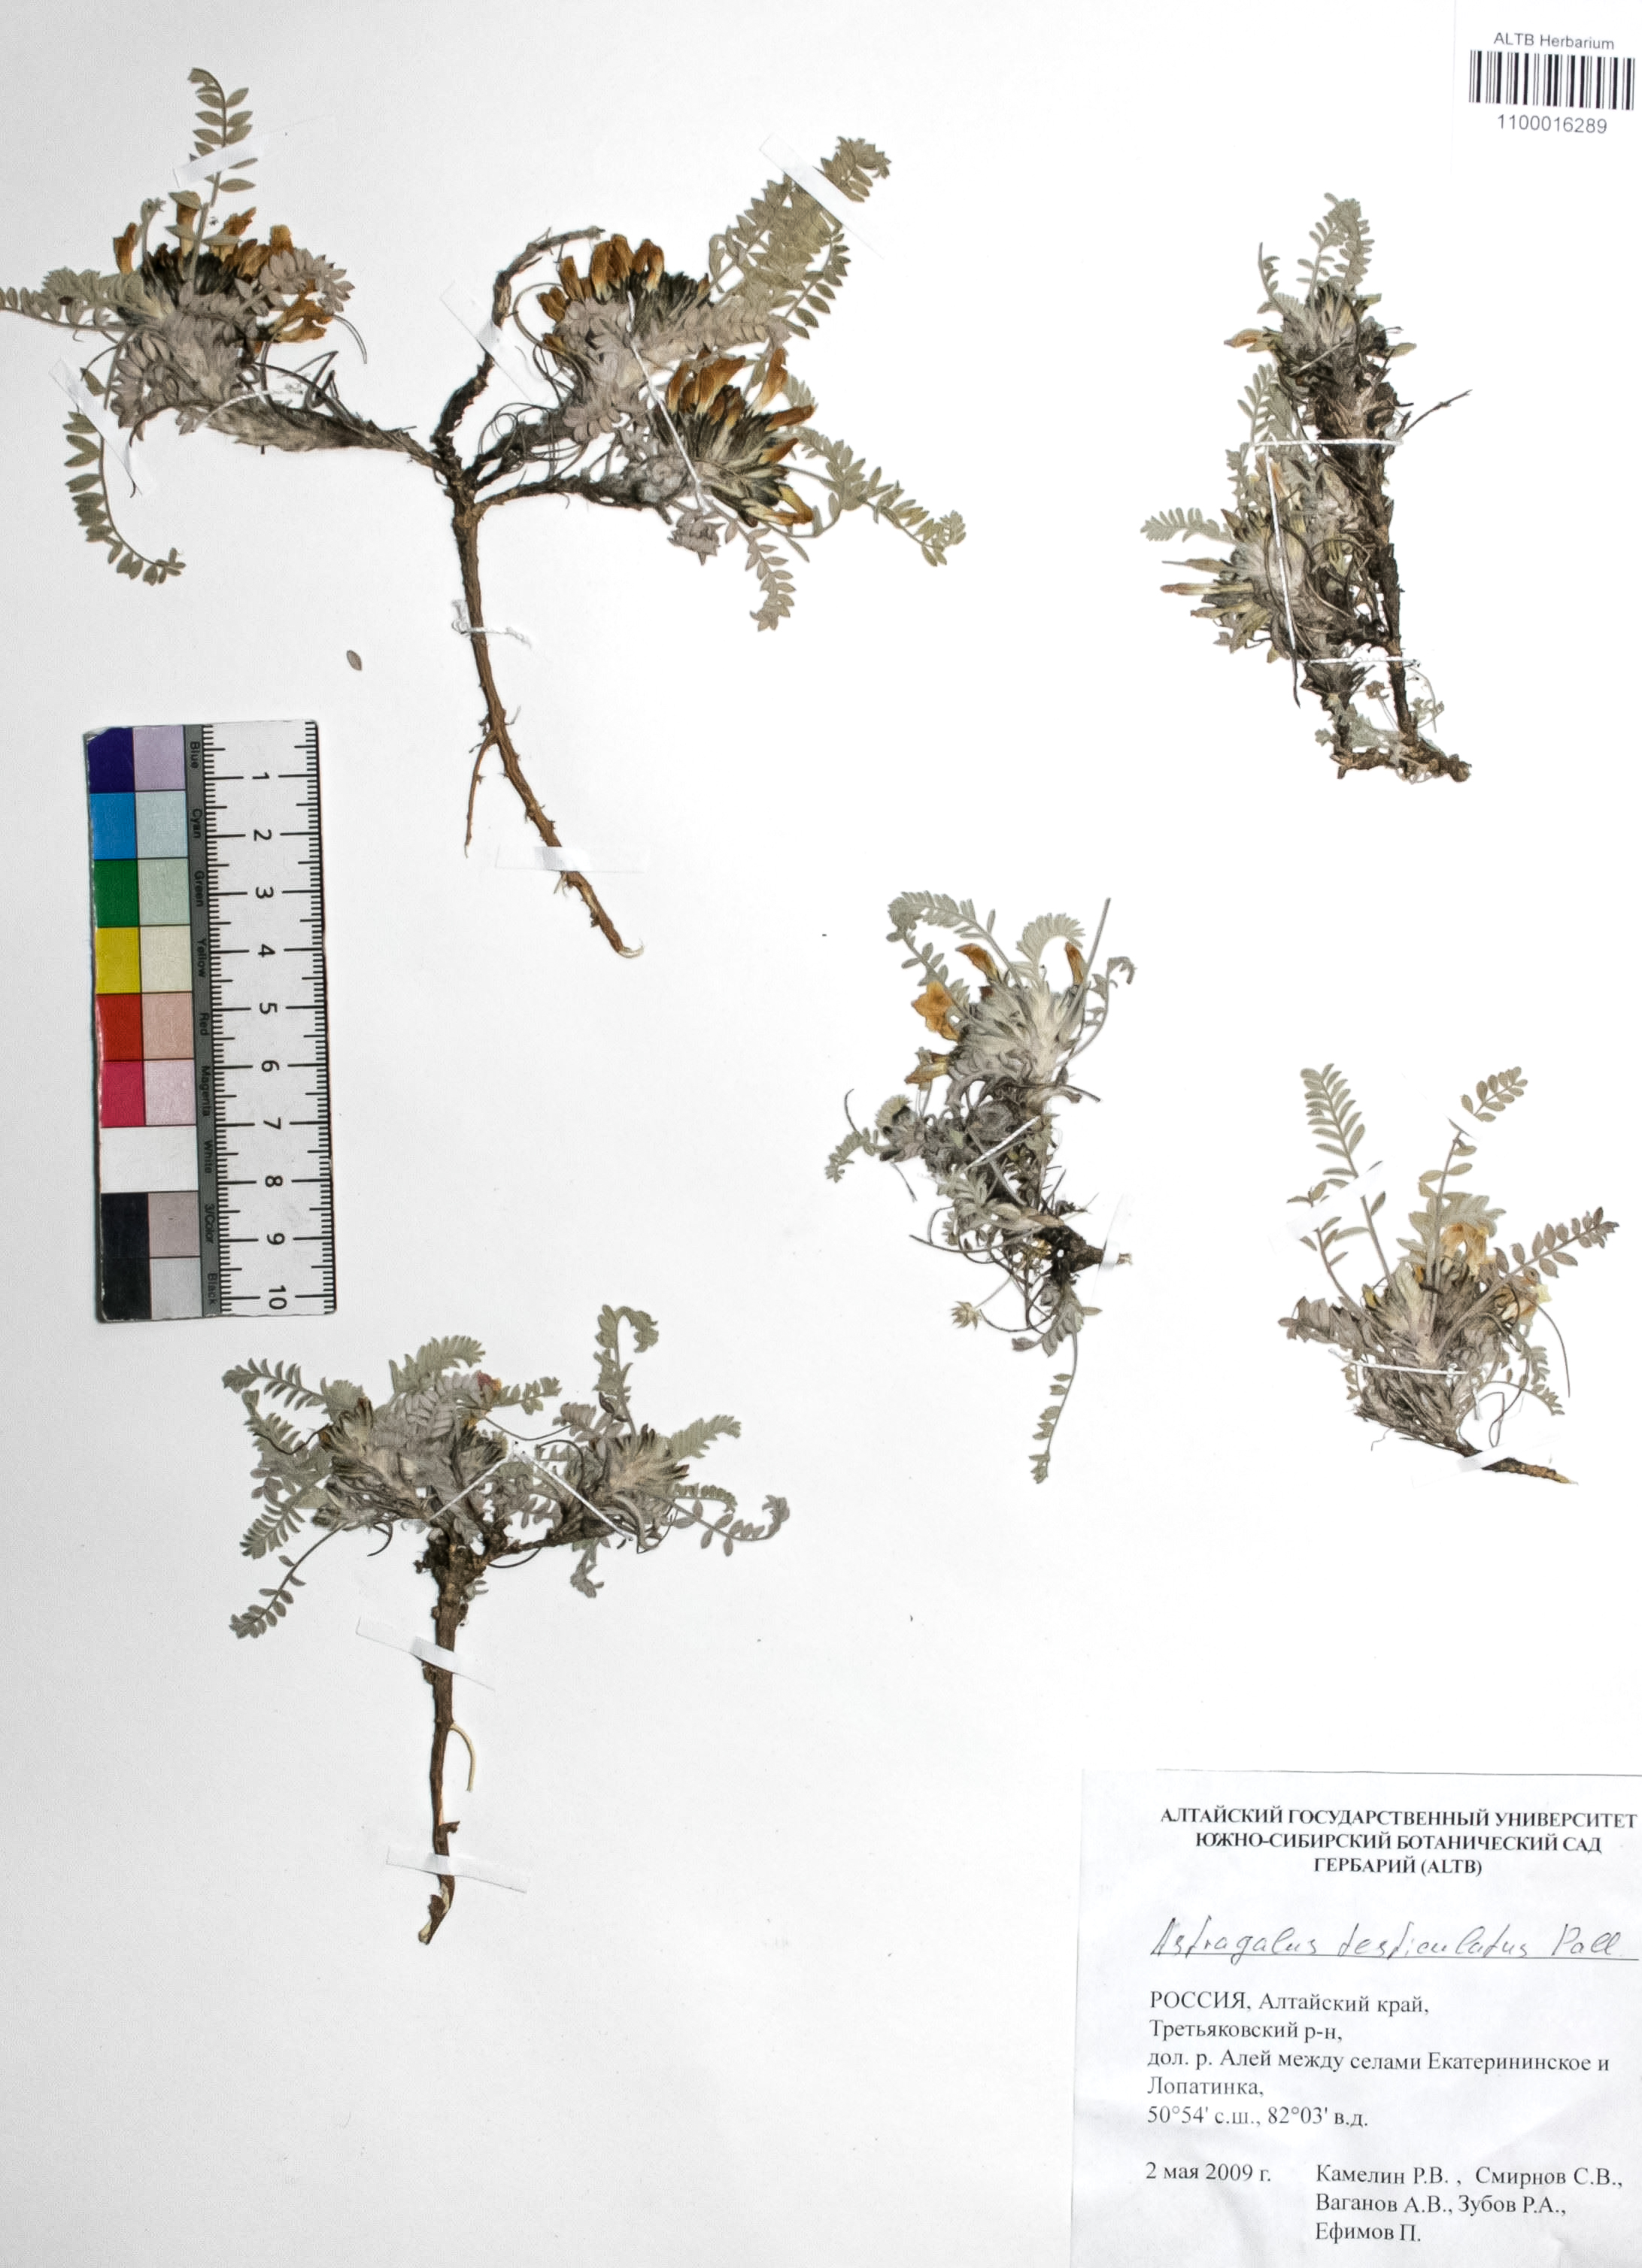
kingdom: Plantae
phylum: Tracheophyta
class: Magnoliopsida
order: Fabales
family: Fabaceae
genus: Astragalus
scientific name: Astragalus testiculatus
